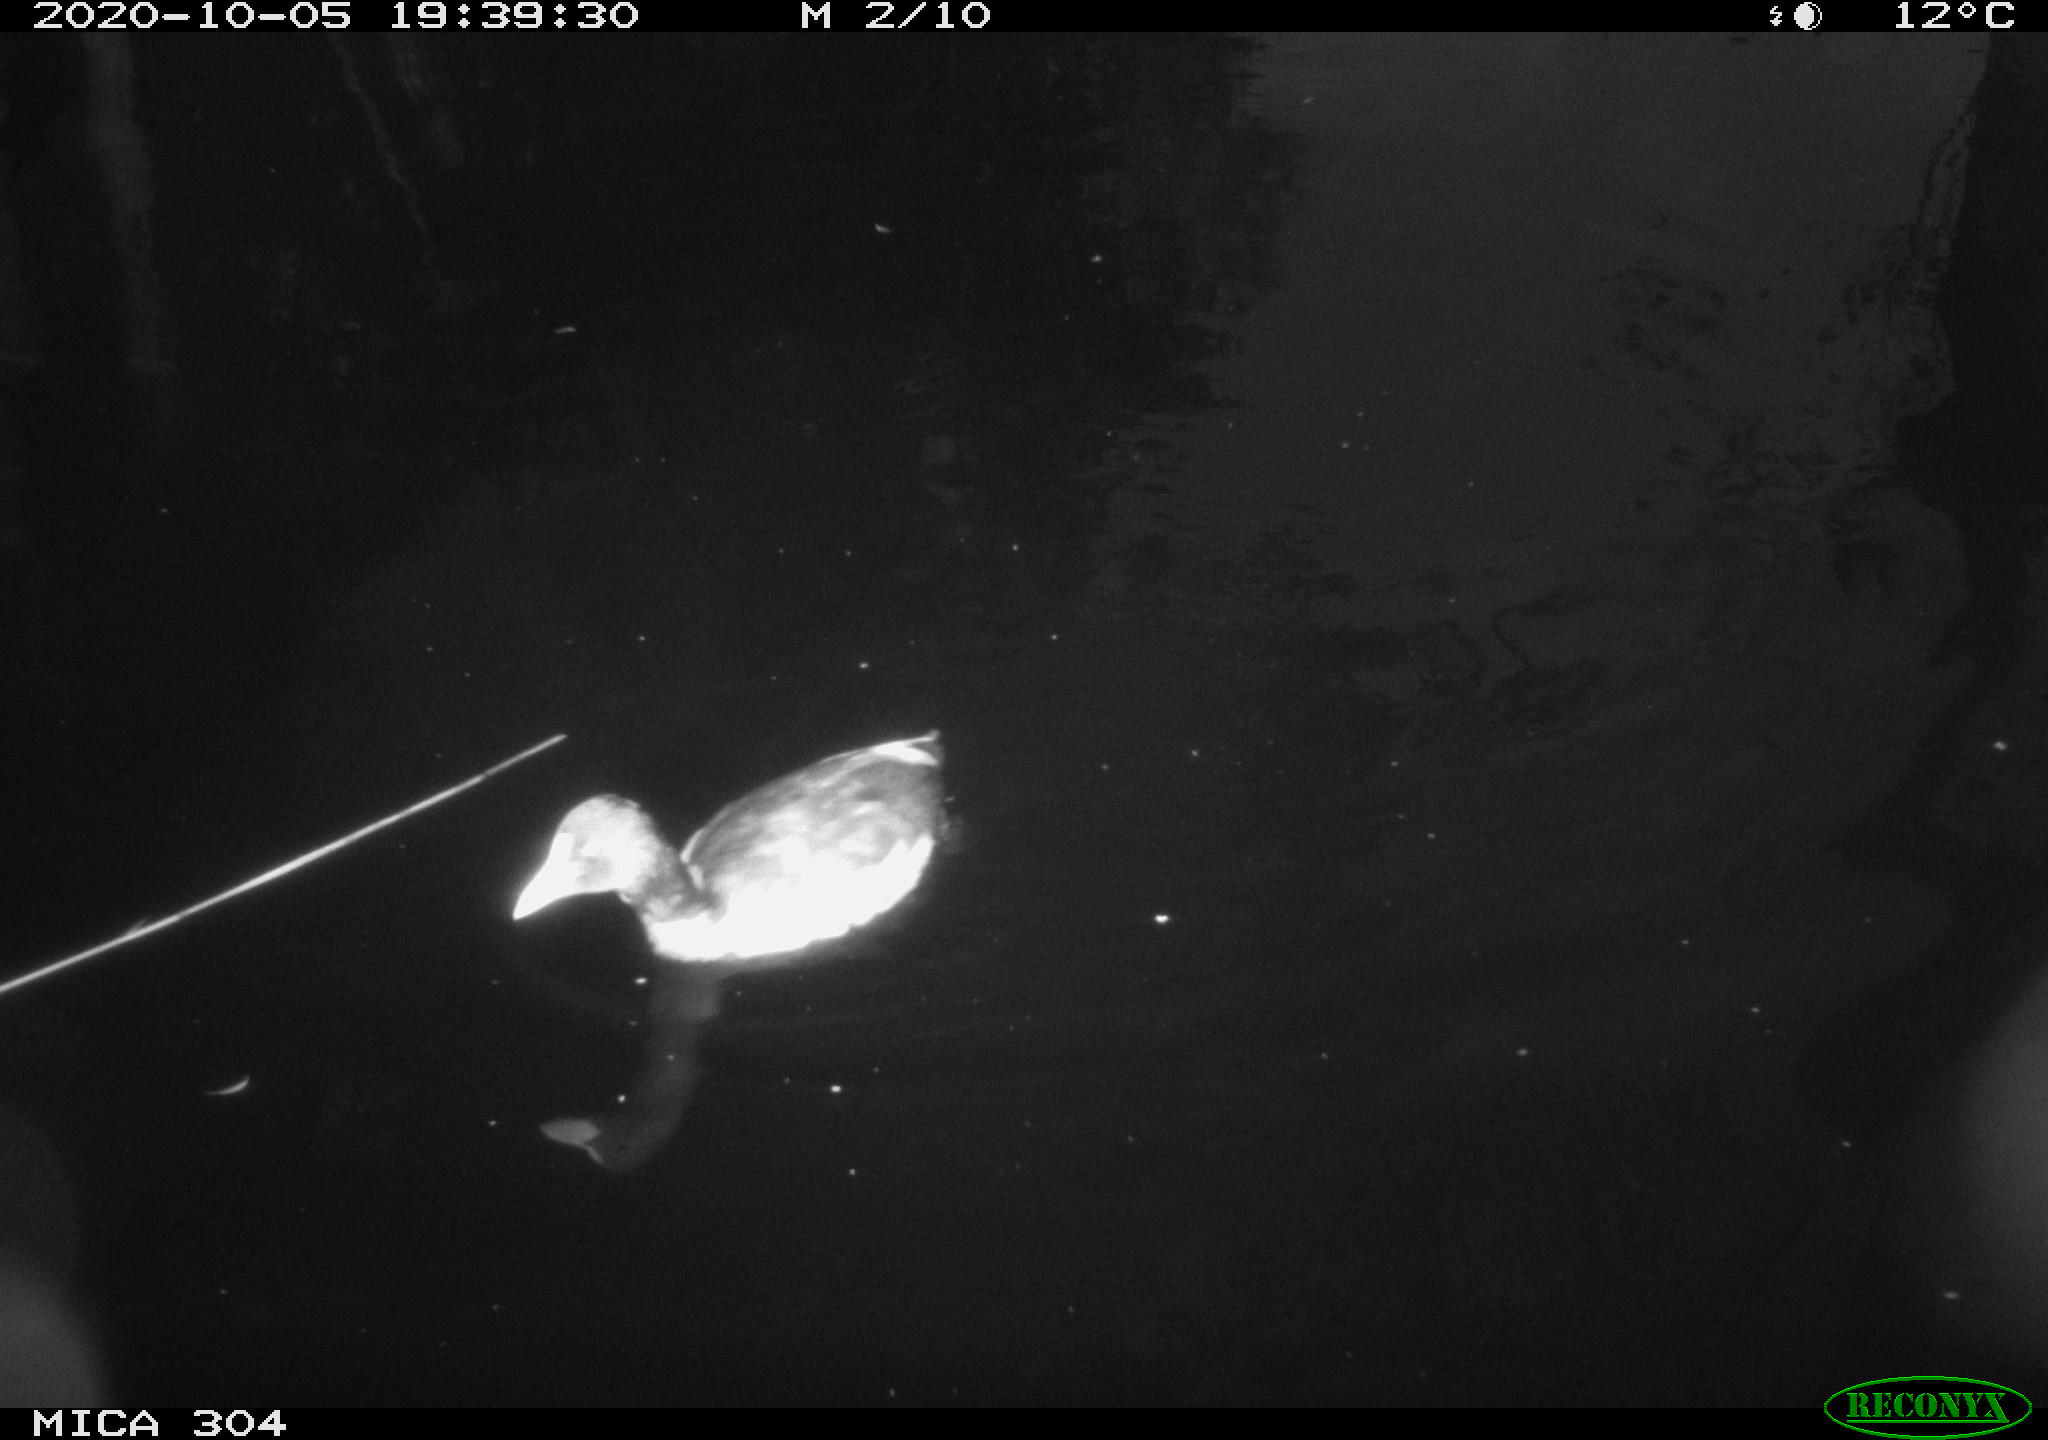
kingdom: Animalia
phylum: Chordata
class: Aves
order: Gruiformes
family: Rallidae
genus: Fulica
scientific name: Fulica atra
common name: Eurasian coot
